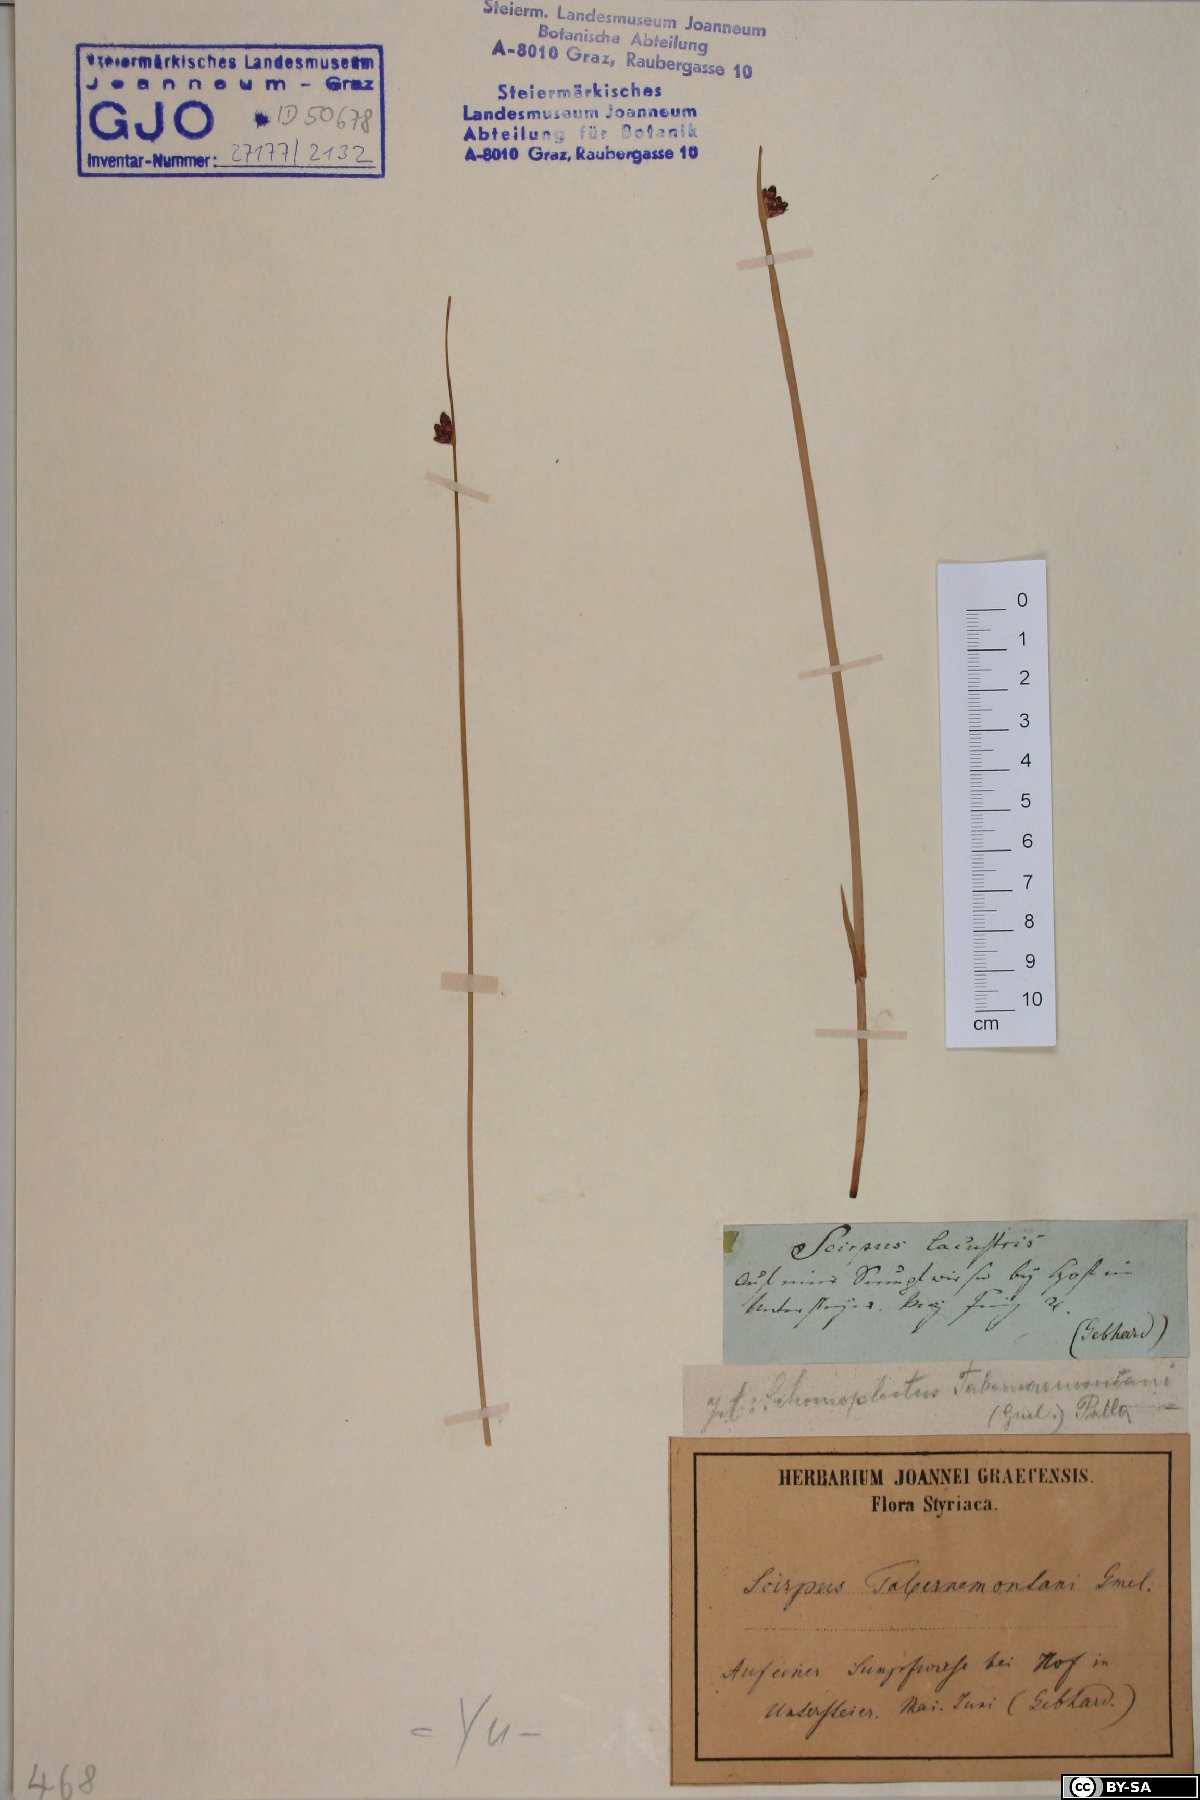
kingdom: Plantae
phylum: Tracheophyta
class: Liliopsida
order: Poales
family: Cyperaceae
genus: Schoenoplectus
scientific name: Schoenoplectus tabernaemontani
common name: Grey club-rush
